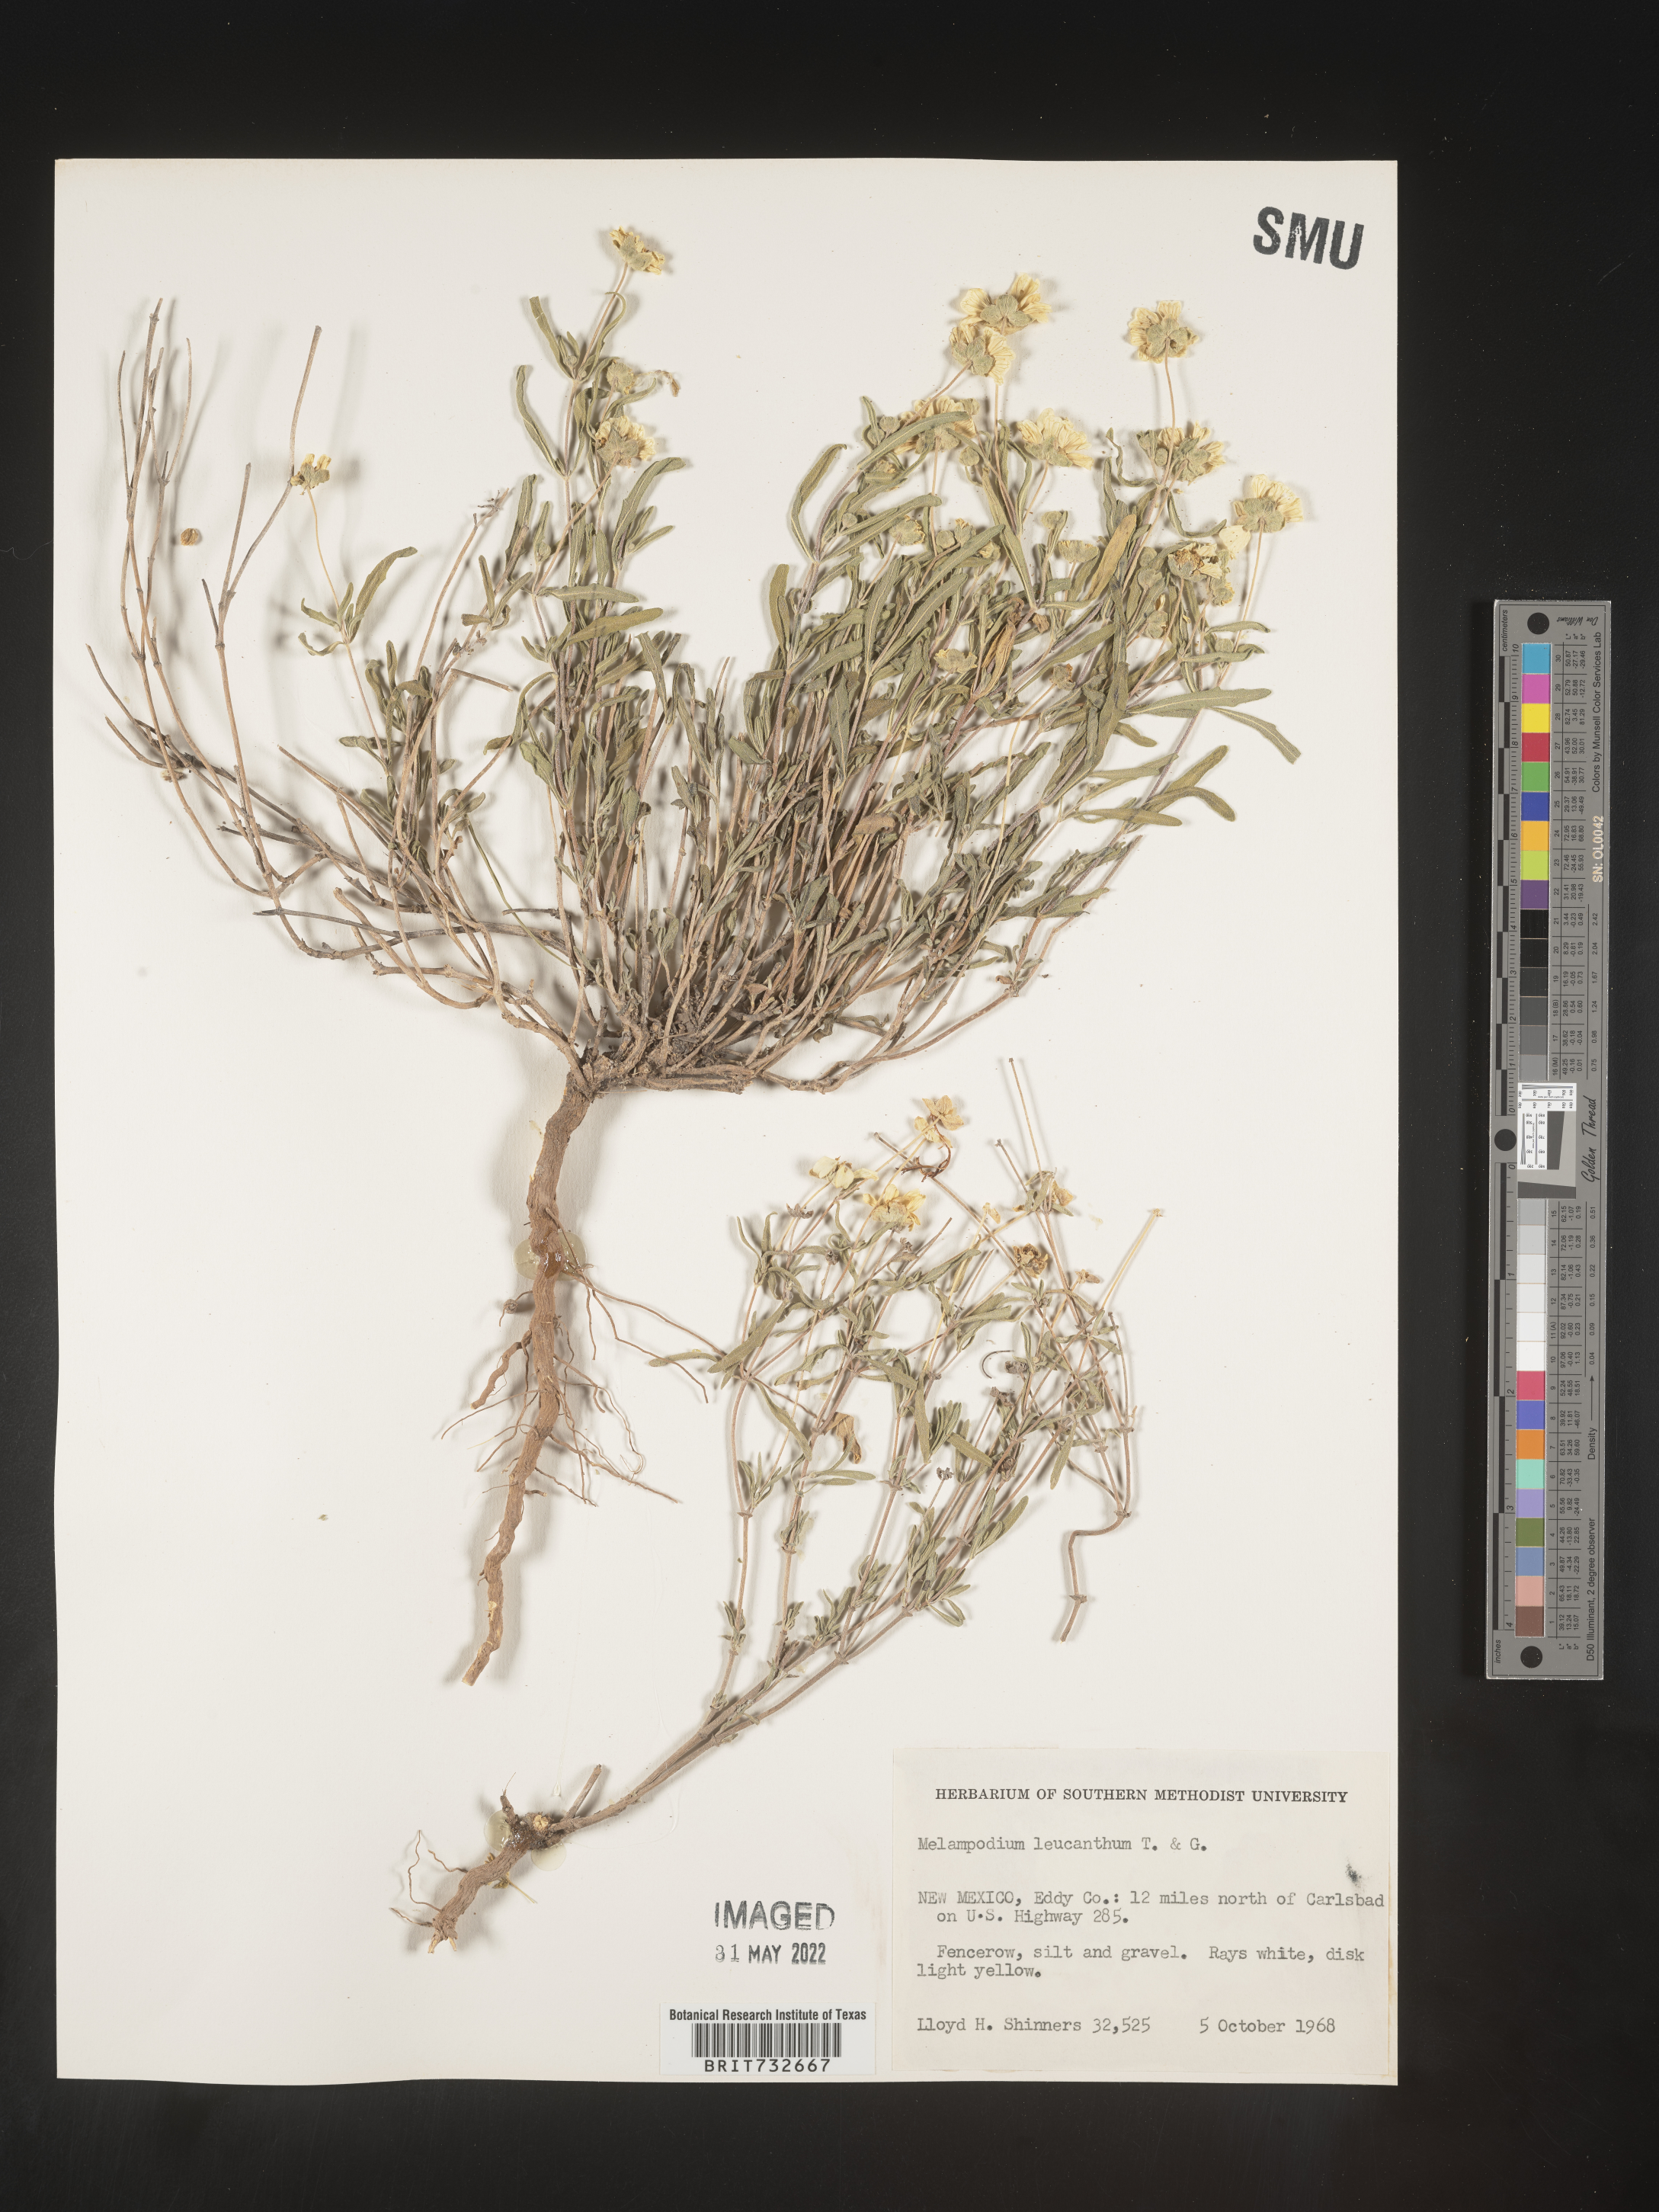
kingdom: Plantae
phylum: Tracheophyta
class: Magnoliopsida
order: Asterales
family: Asteraceae
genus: Melampodium
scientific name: Melampodium leucanthum
